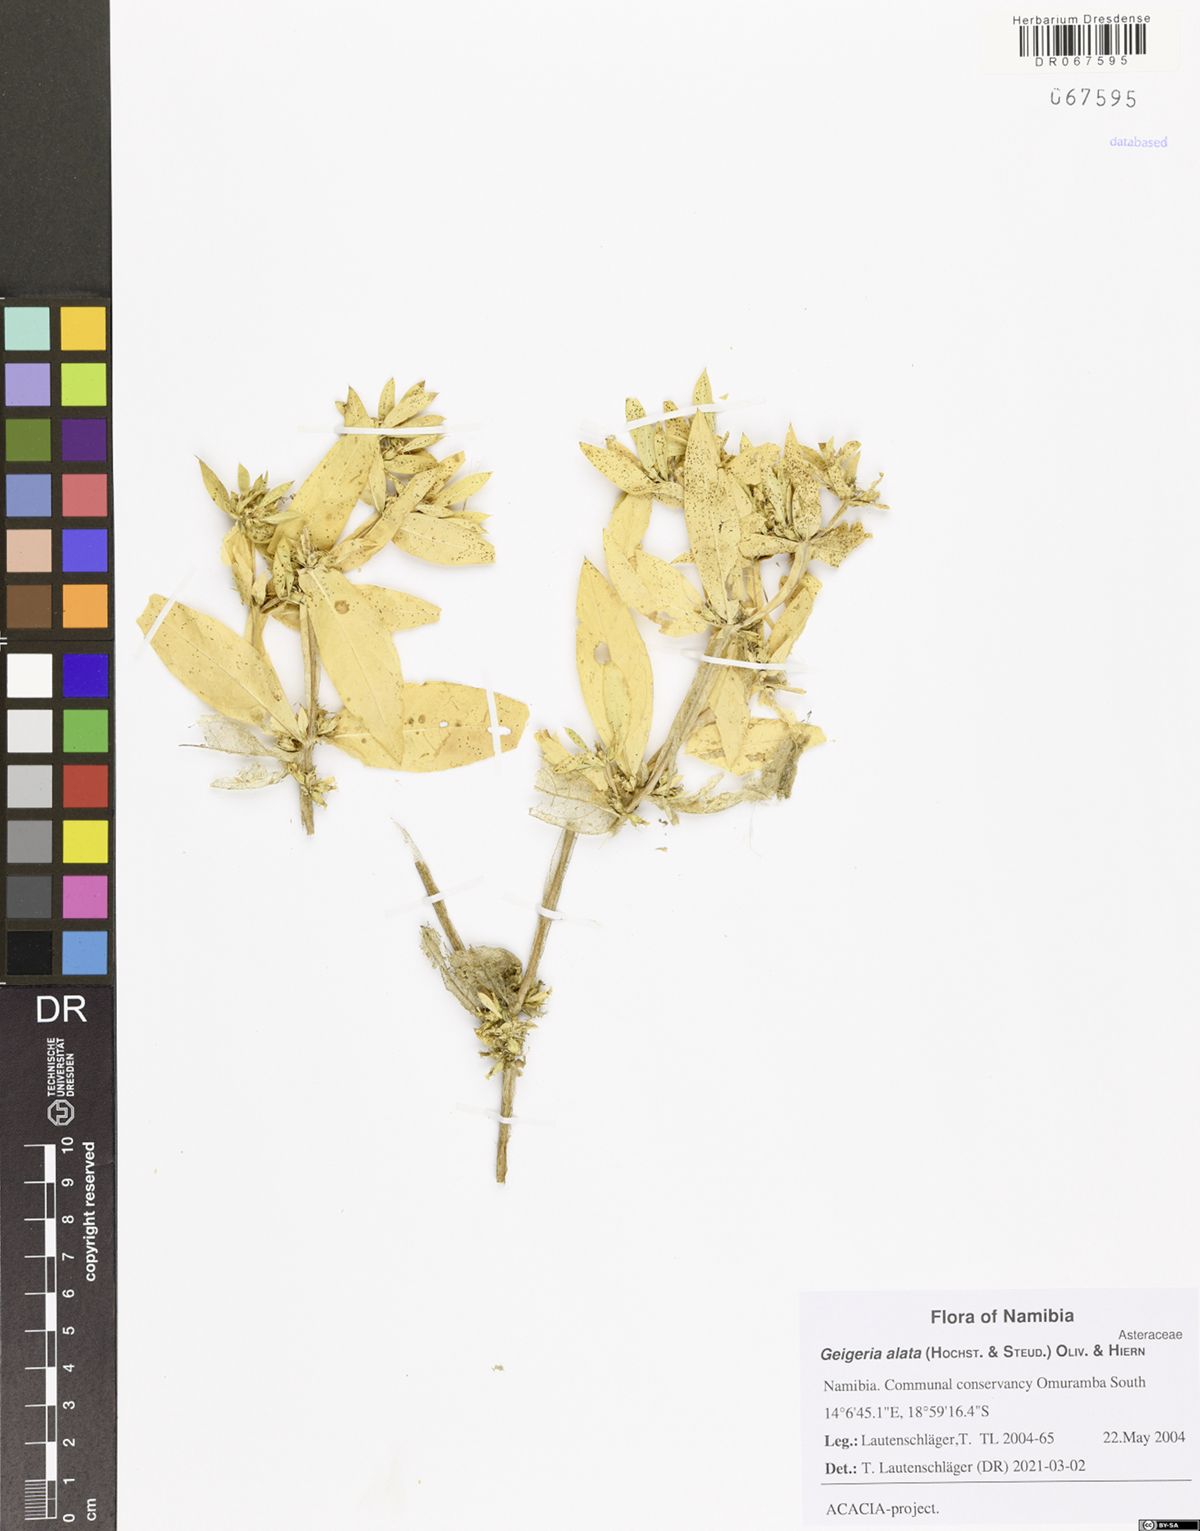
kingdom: Plantae
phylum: Tracheophyta
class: Magnoliopsida
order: Asterales
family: Asteraceae
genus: Geigeria
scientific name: Geigeria alata
